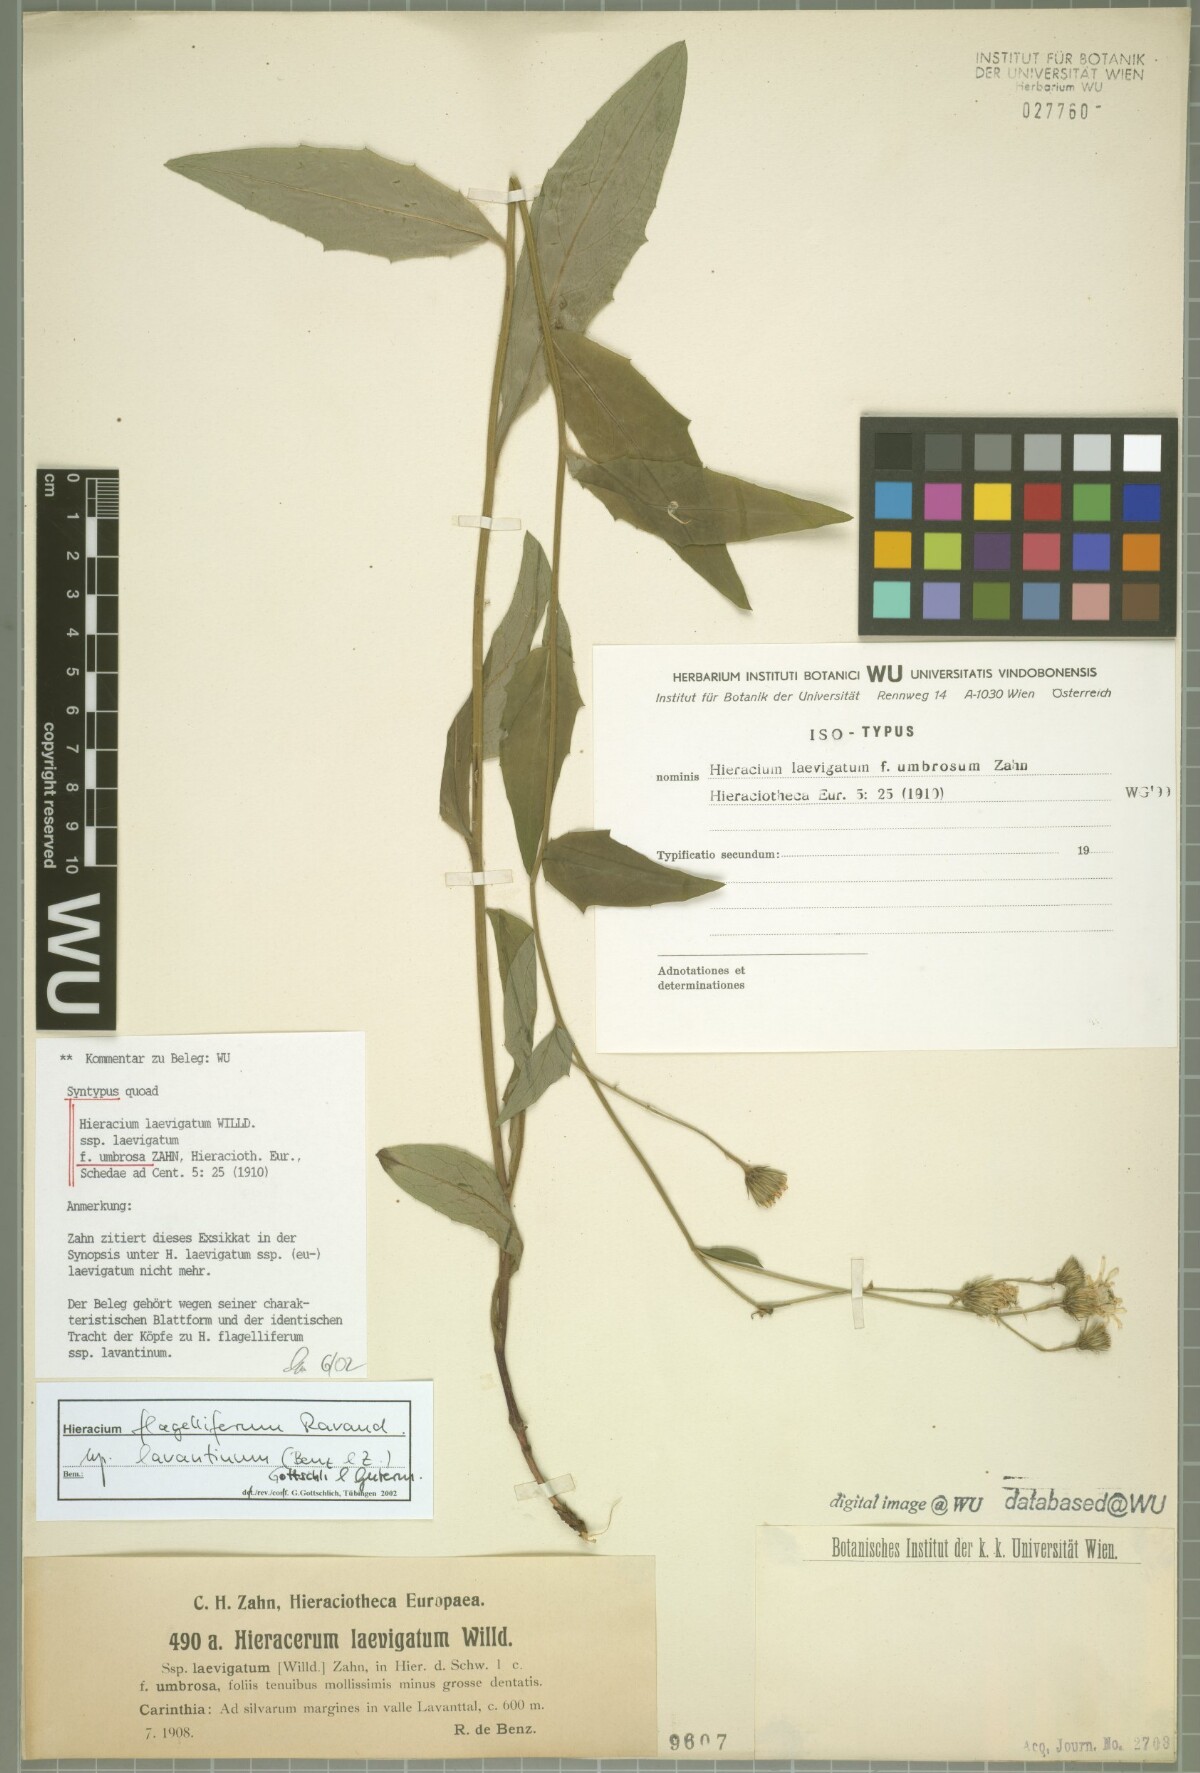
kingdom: Plantae
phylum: Tracheophyta
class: Magnoliopsida
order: Asterales
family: Asteraceae
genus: Hieracium
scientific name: Hieracium laevigatum
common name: Smooth hawkweed
